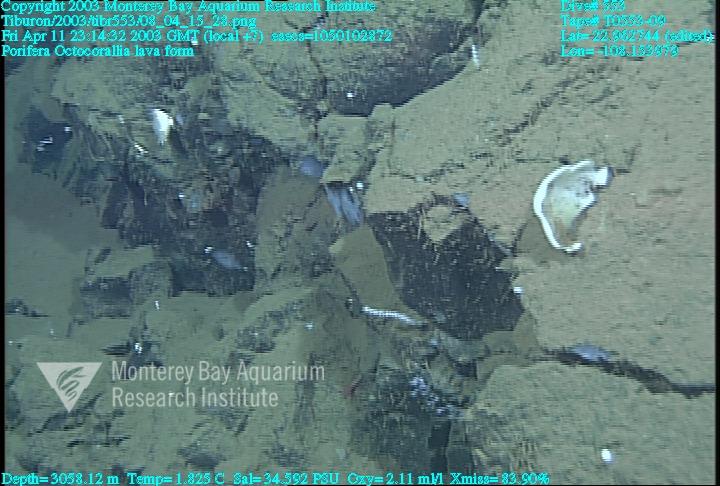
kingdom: Animalia
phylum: Porifera
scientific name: Porifera
